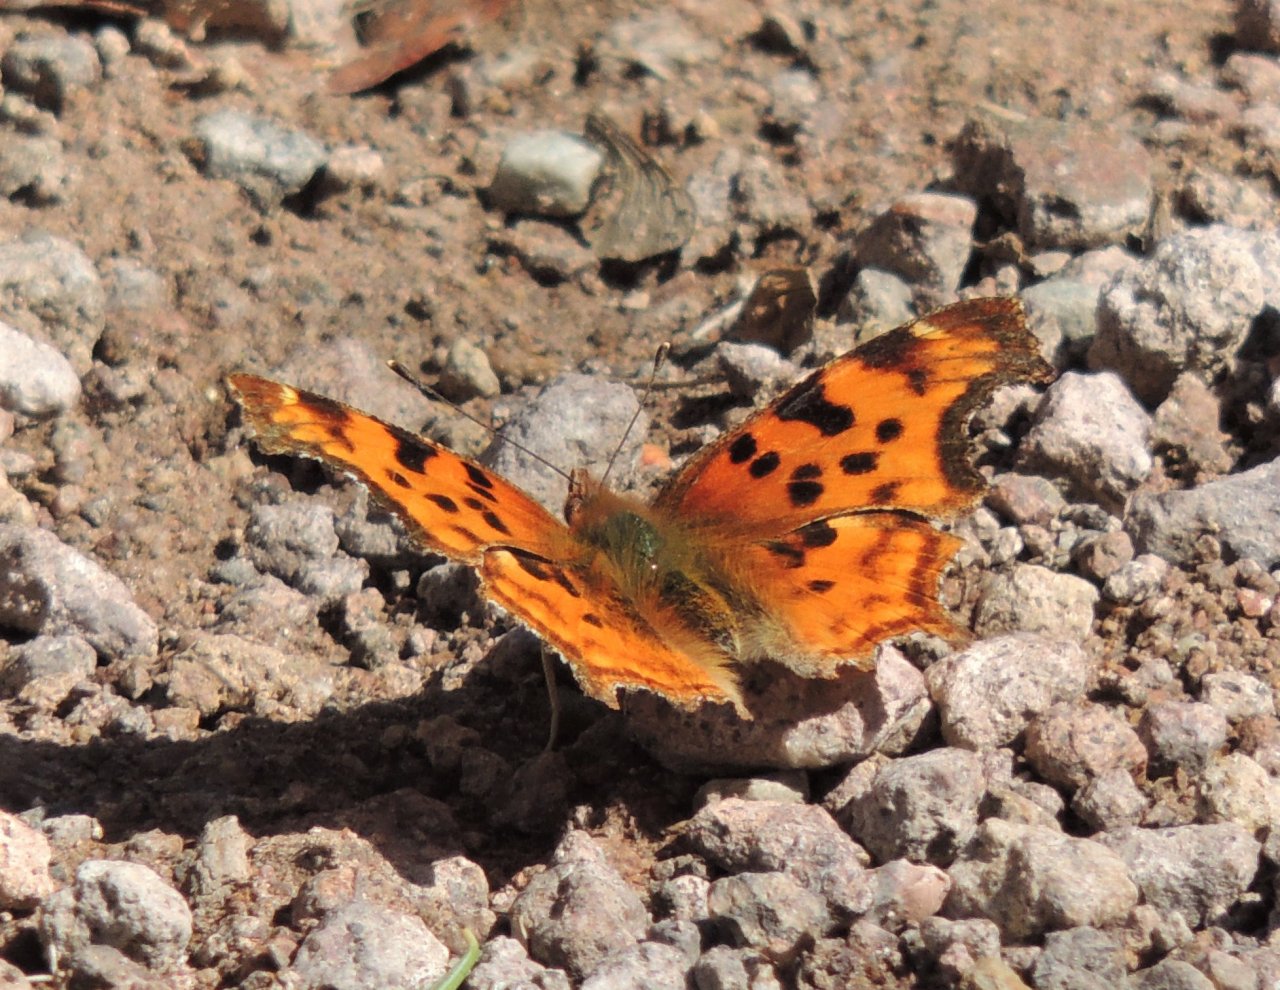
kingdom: Animalia
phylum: Arthropoda
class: Insecta
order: Lepidoptera
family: Nymphalidae
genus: Polygonia
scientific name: Polygonia satyrus
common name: Satyr Comma
